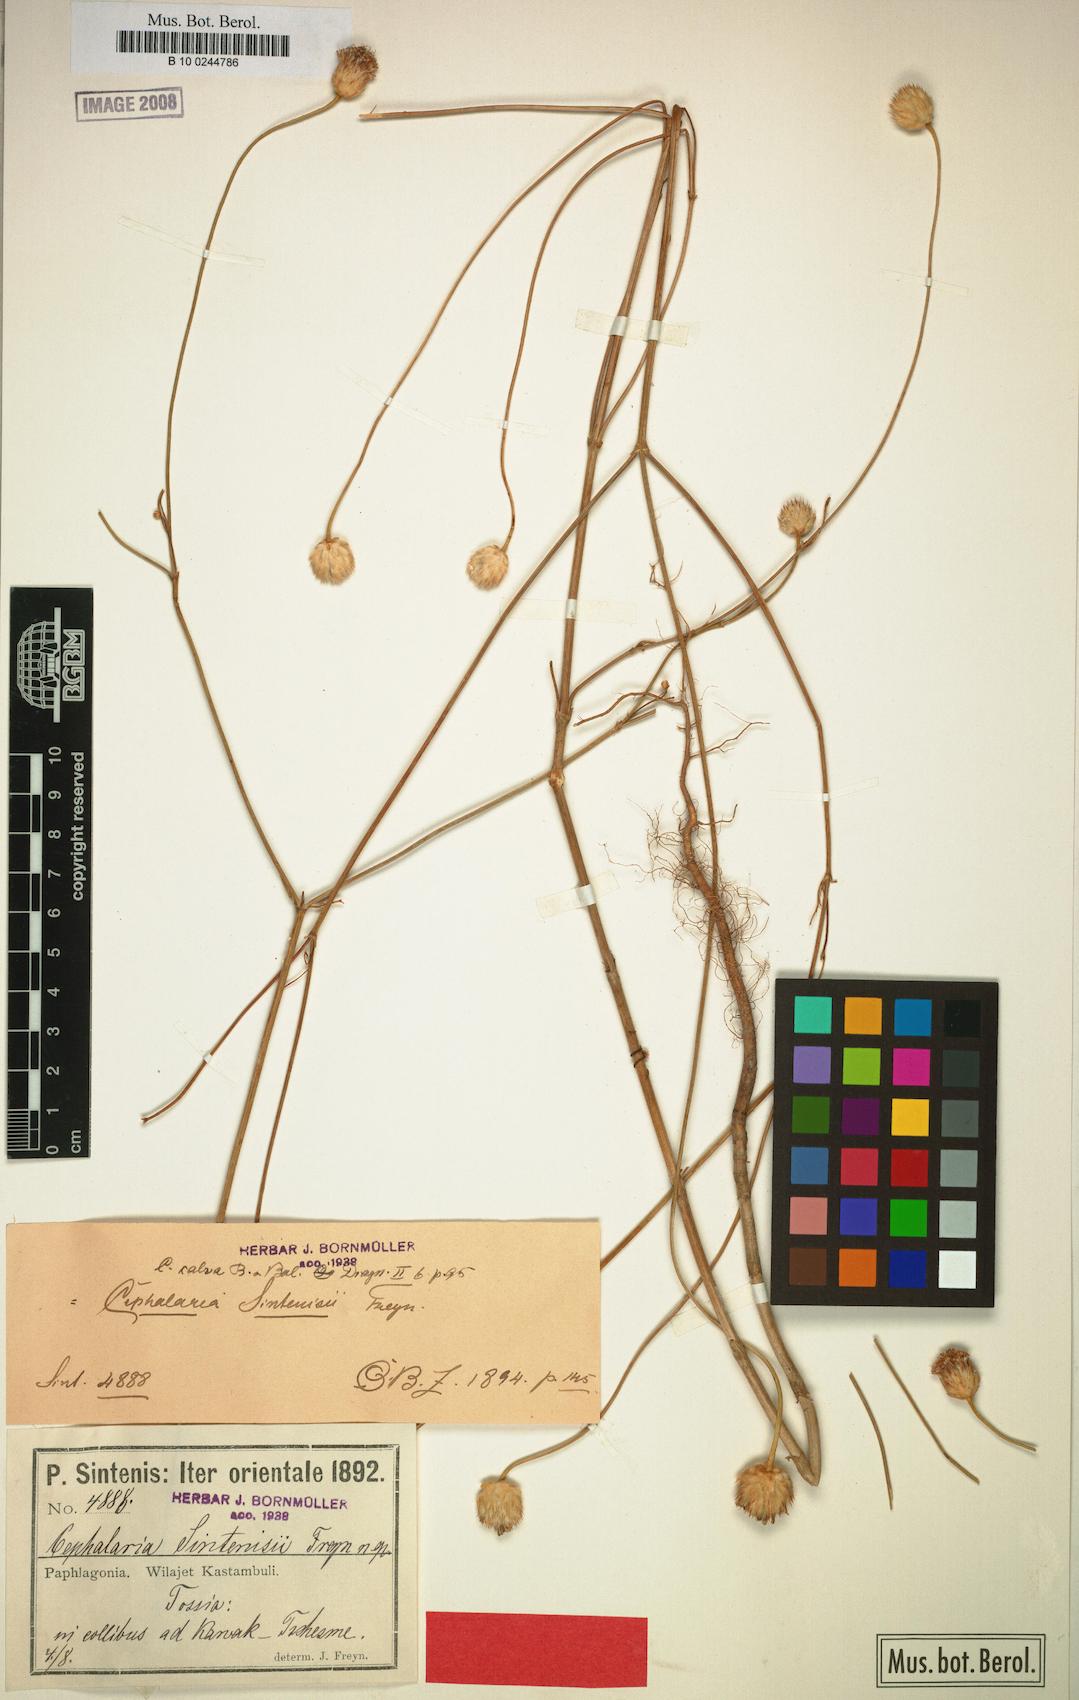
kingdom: Plantae
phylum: Tracheophyta
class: Magnoliopsida
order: Dipsacales
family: Caprifoliaceae
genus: Cephalaria
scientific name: Cephalaria aristata
